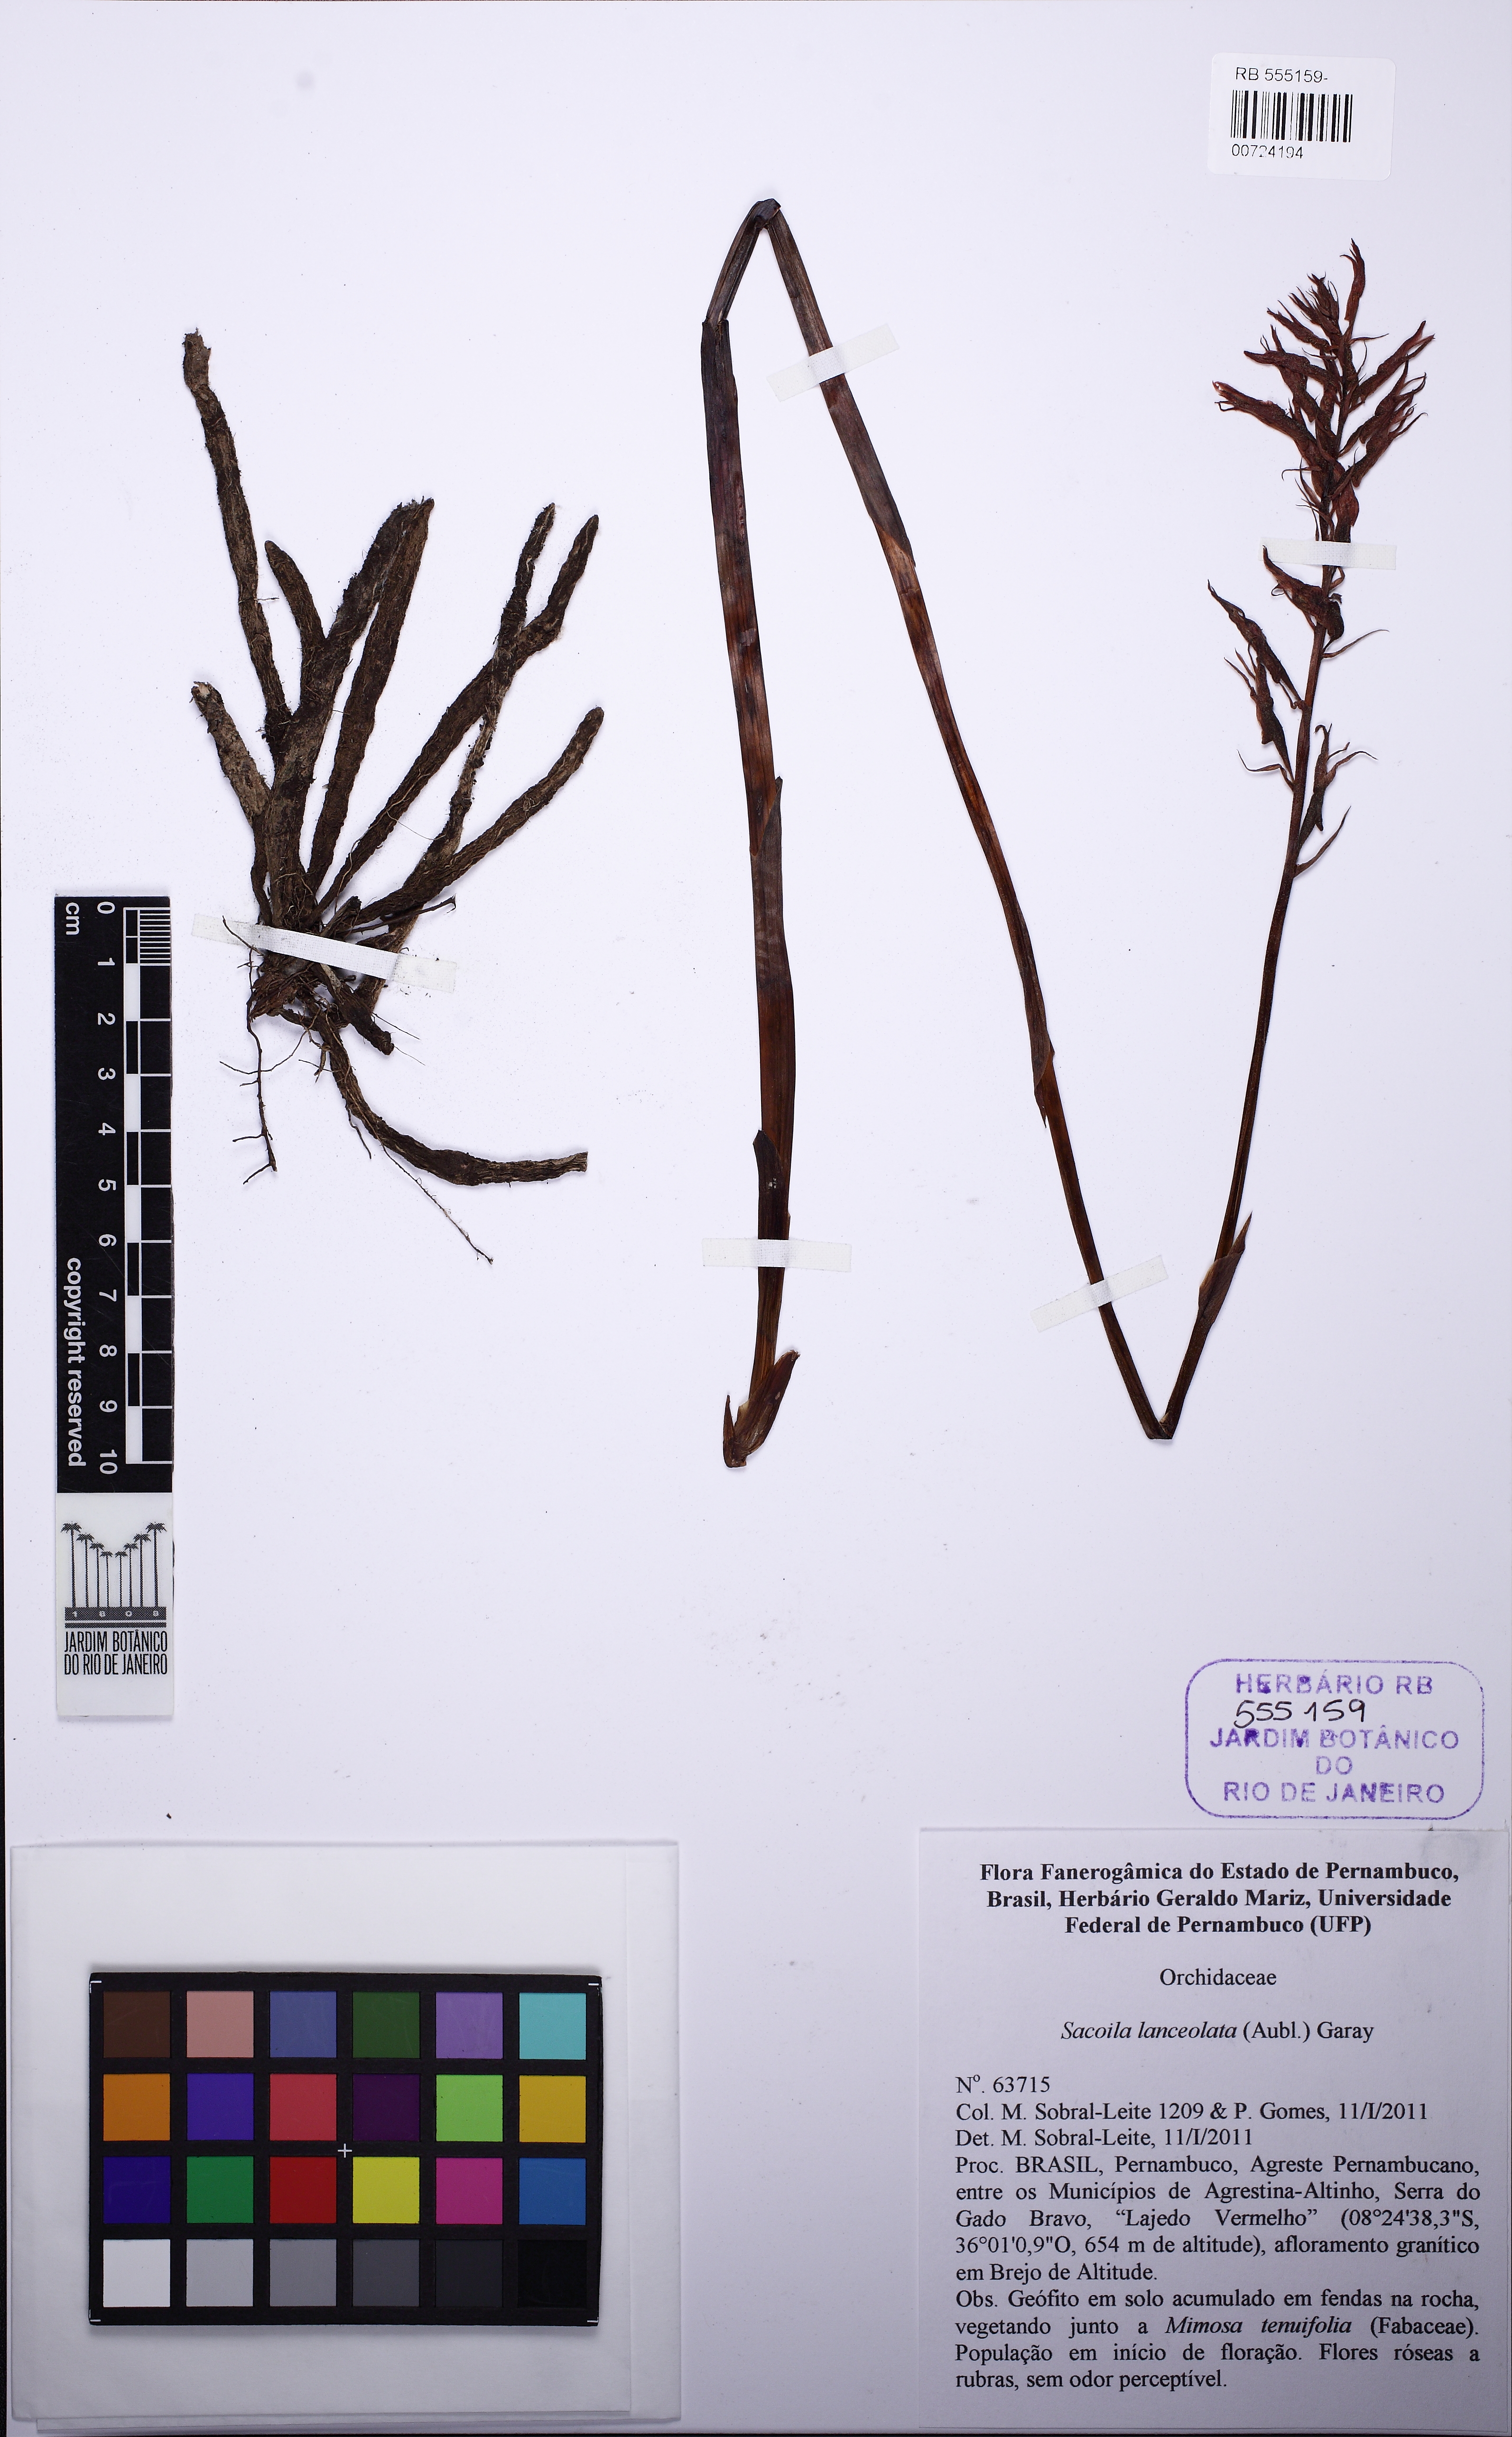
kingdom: Plantae
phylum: Tracheophyta
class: Liliopsida
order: Asparagales
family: Orchidaceae
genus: Sacoila
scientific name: Sacoila lanceolata
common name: Leafless beaked ladiestresses
